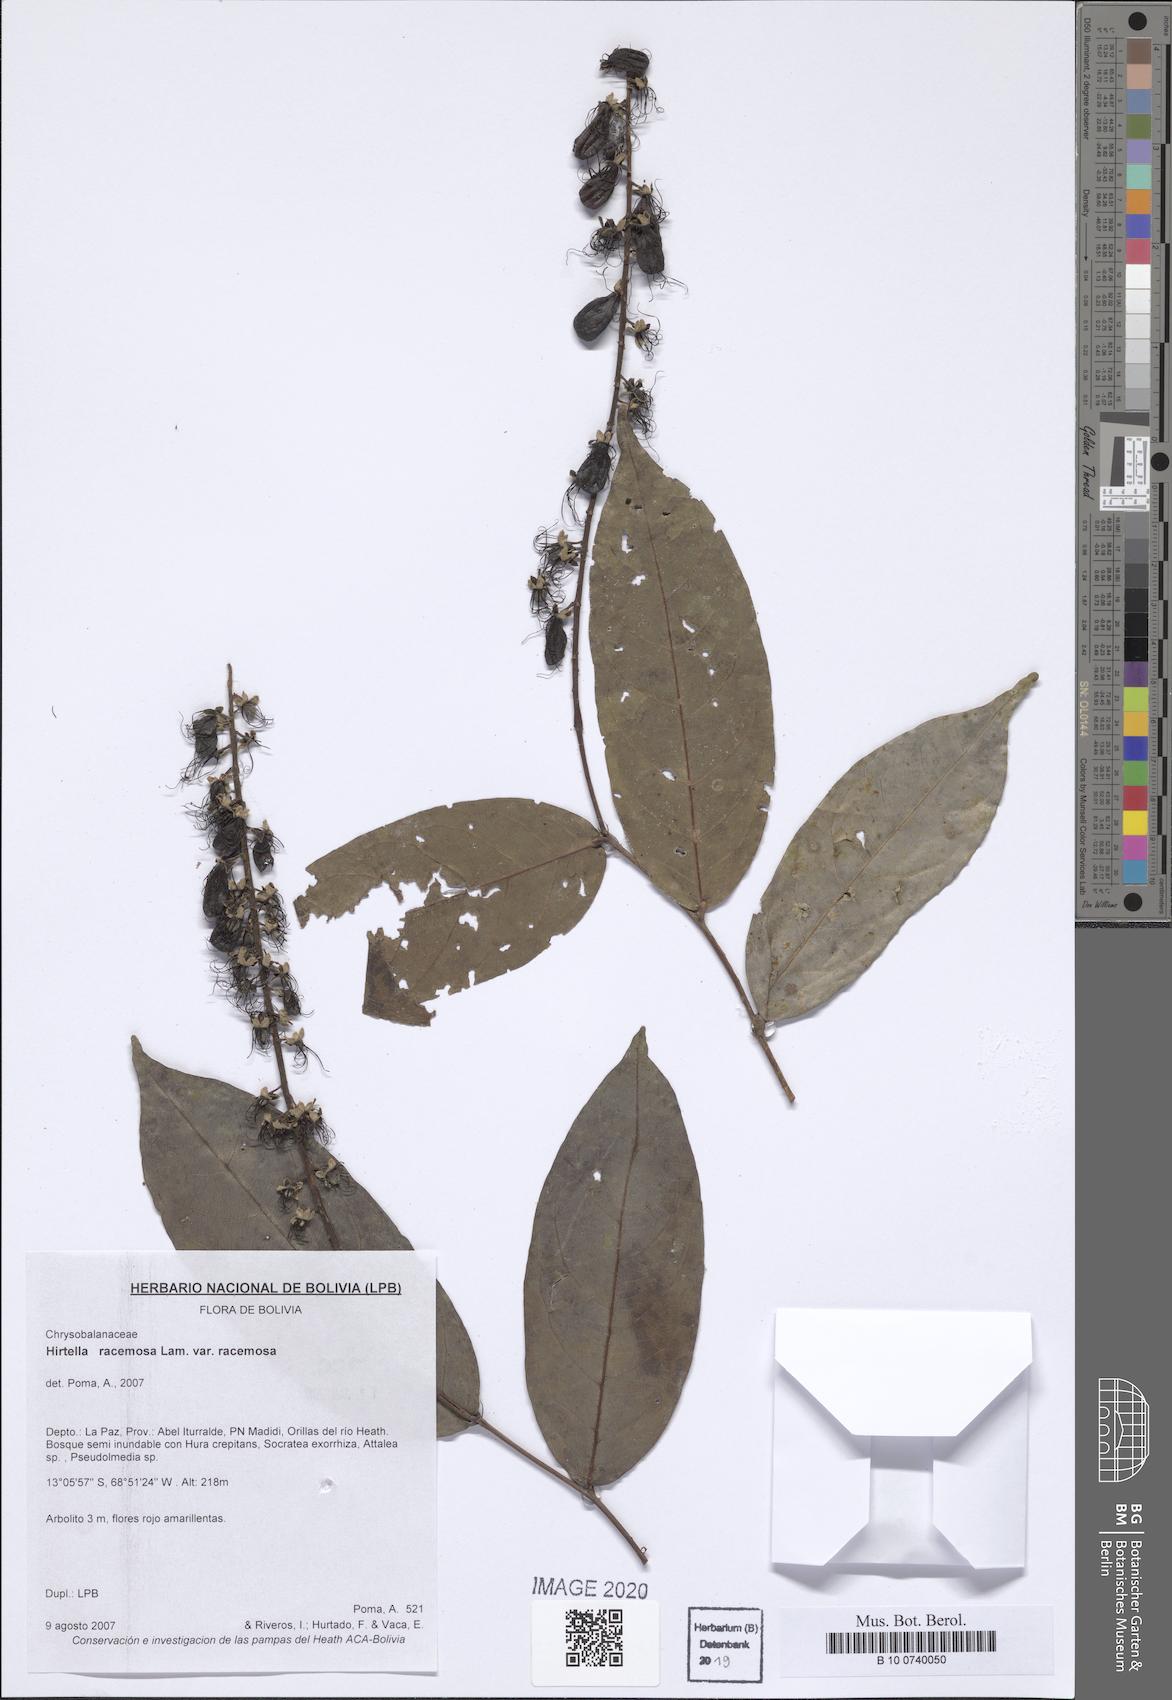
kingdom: Plantae
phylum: Tracheophyta
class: Magnoliopsida
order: Malpighiales
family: Chrysobalanaceae
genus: Hirtella
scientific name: Hirtella racemosa
